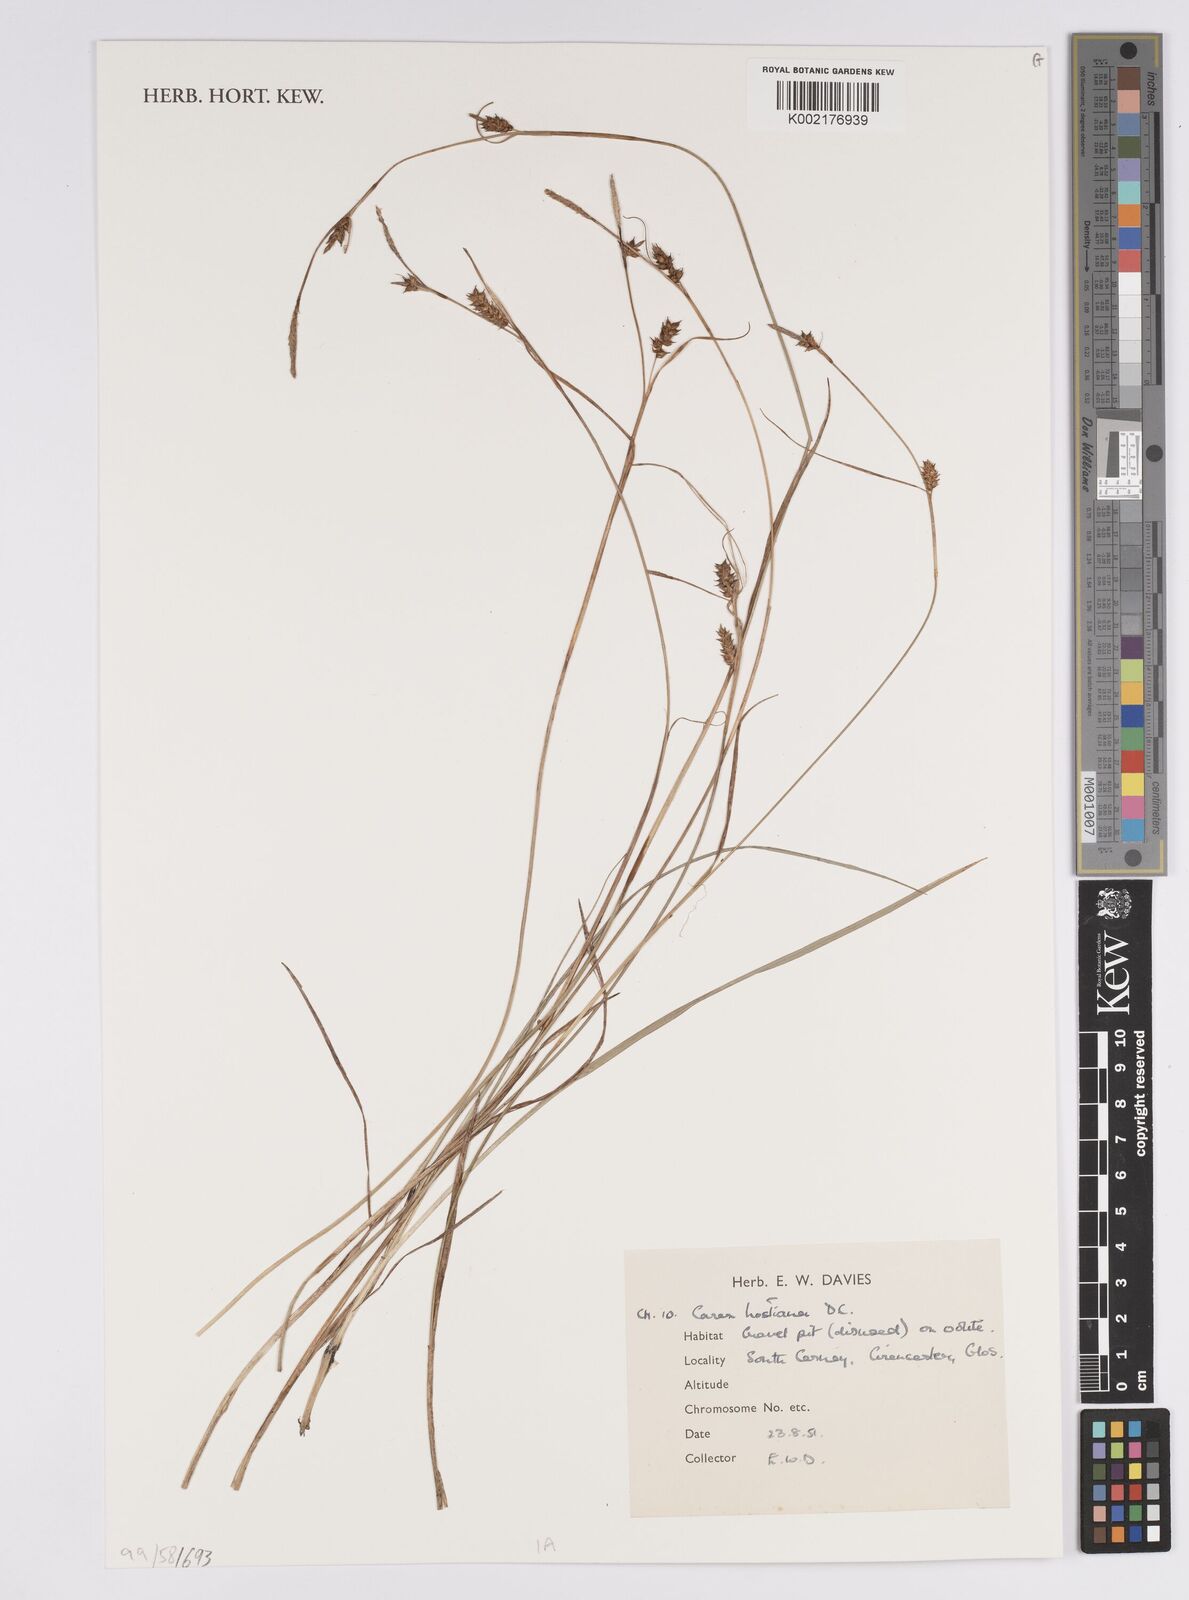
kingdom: Plantae
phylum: Tracheophyta
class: Liliopsida
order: Poales
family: Cyperaceae
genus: Carex
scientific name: Carex hostiana
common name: Tawny sedge
